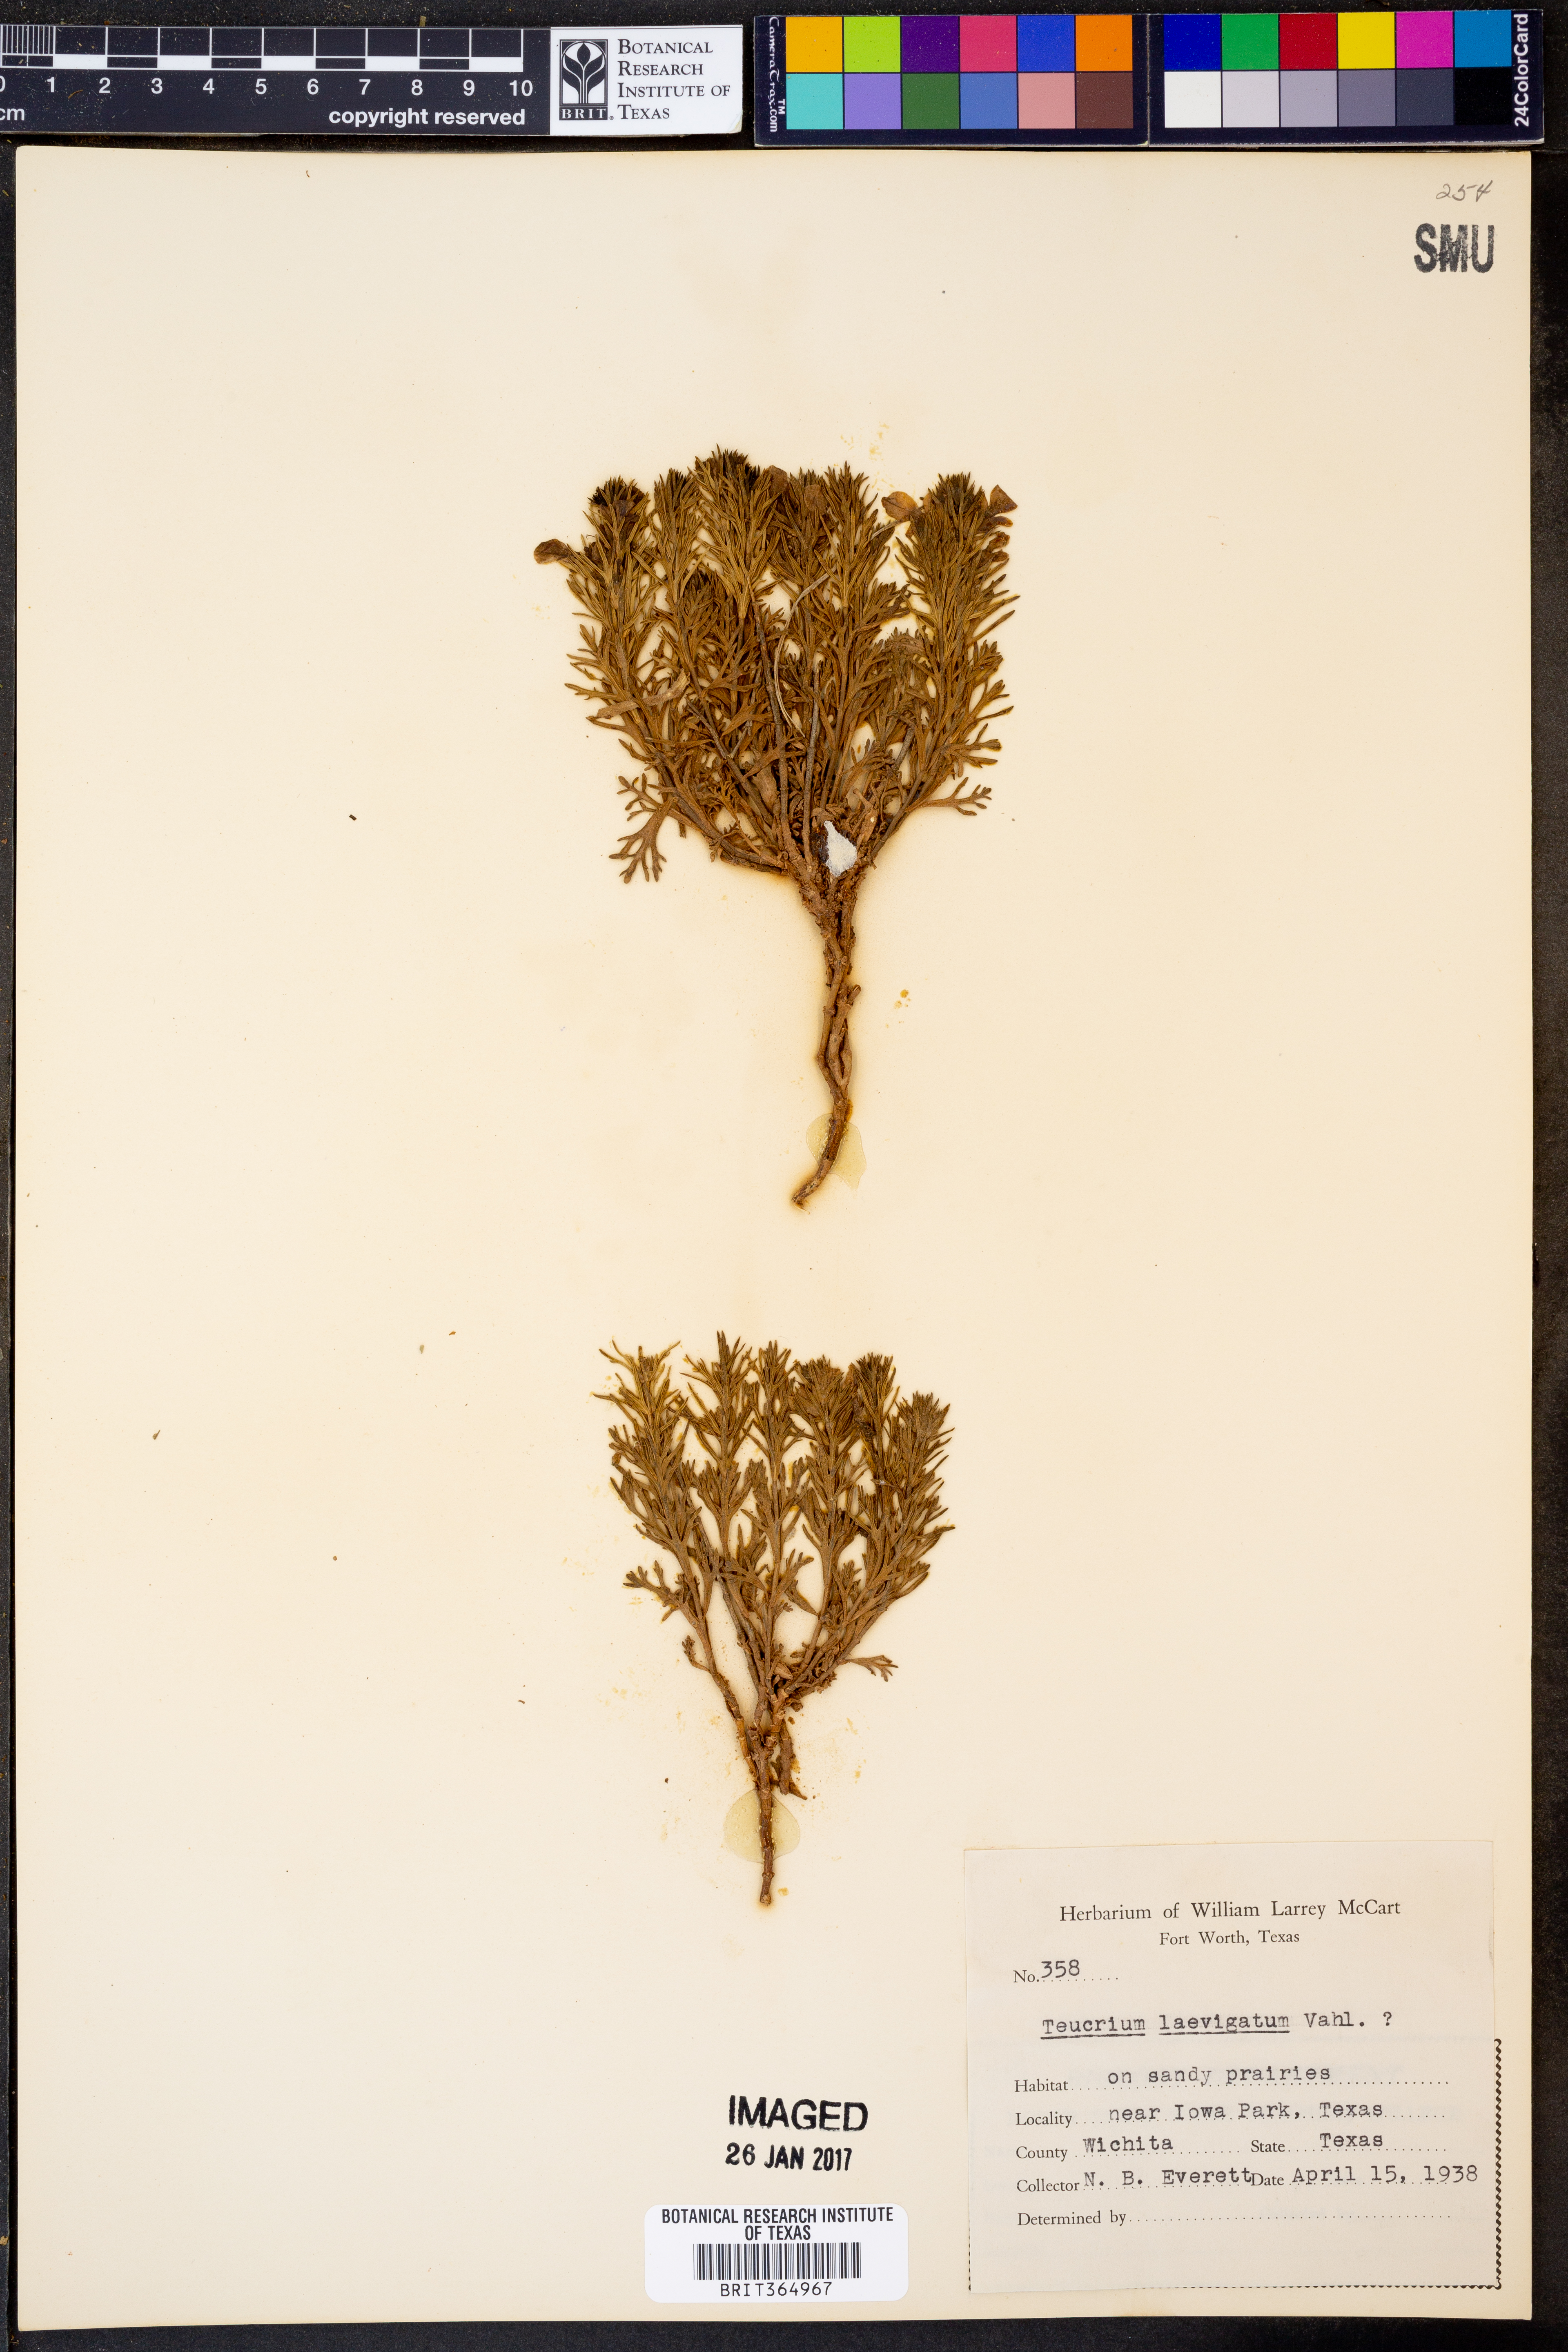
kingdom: Plantae
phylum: Tracheophyta
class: Magnoliopsida
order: Lamiales
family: Lamiaceae
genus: Teucrium
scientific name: Teucrium cubense
